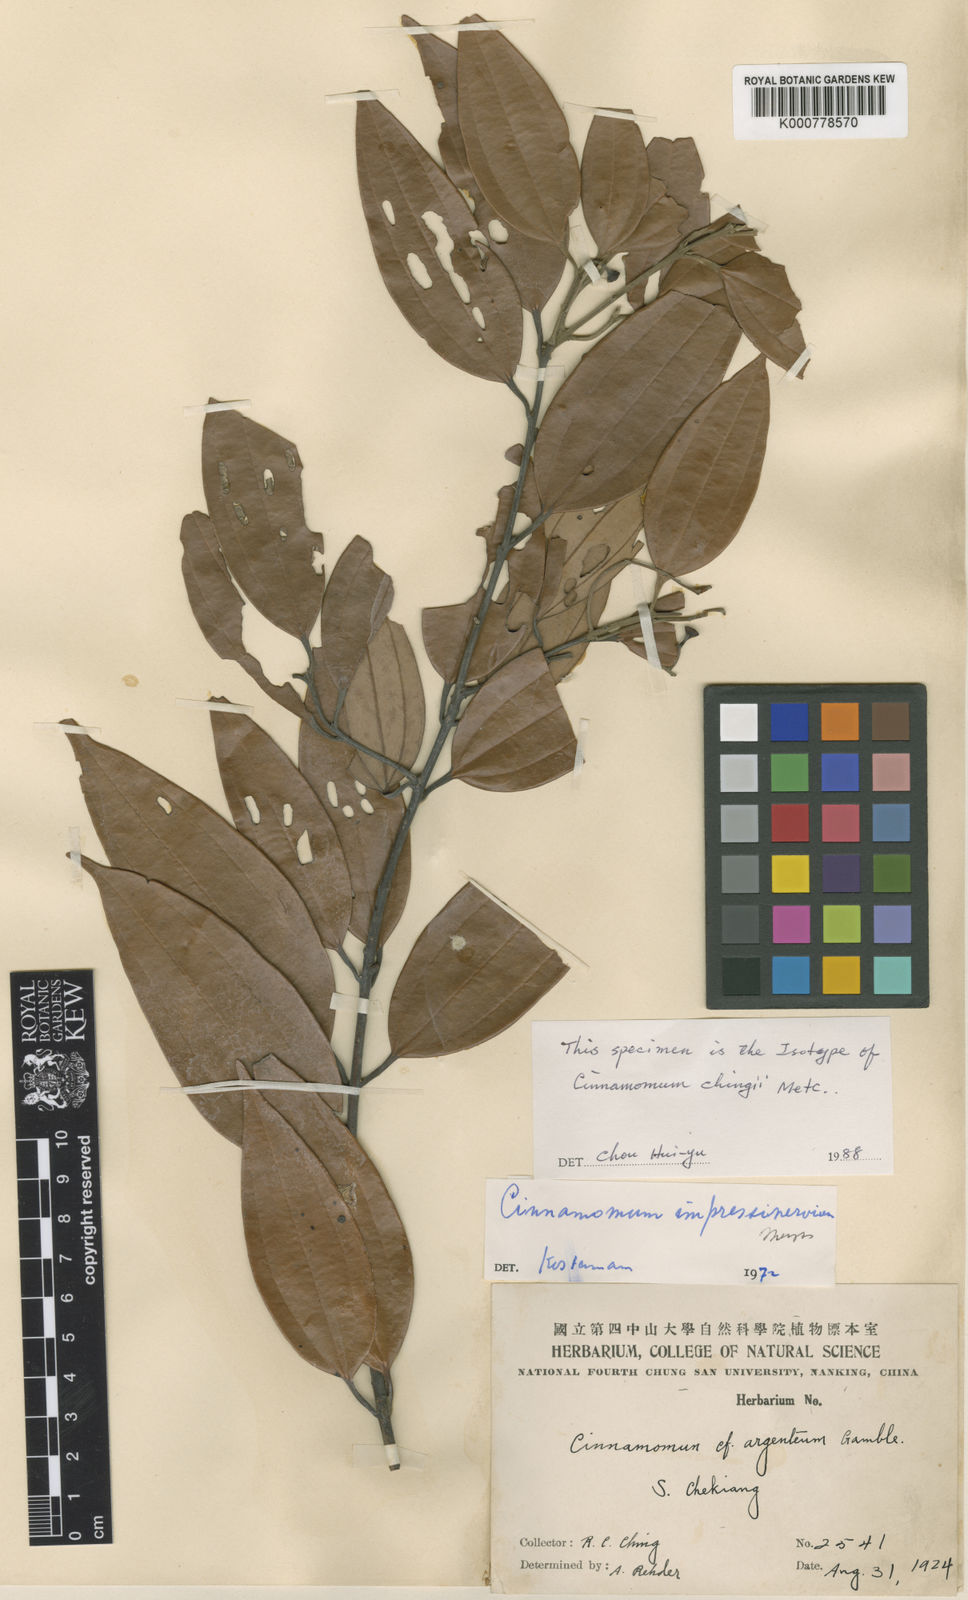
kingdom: Plantae
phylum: Tracheophyta
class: Magnoliopsida
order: Laurales
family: Lauraceae
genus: Cinnamomum
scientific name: Cinnamomum impressinervium
